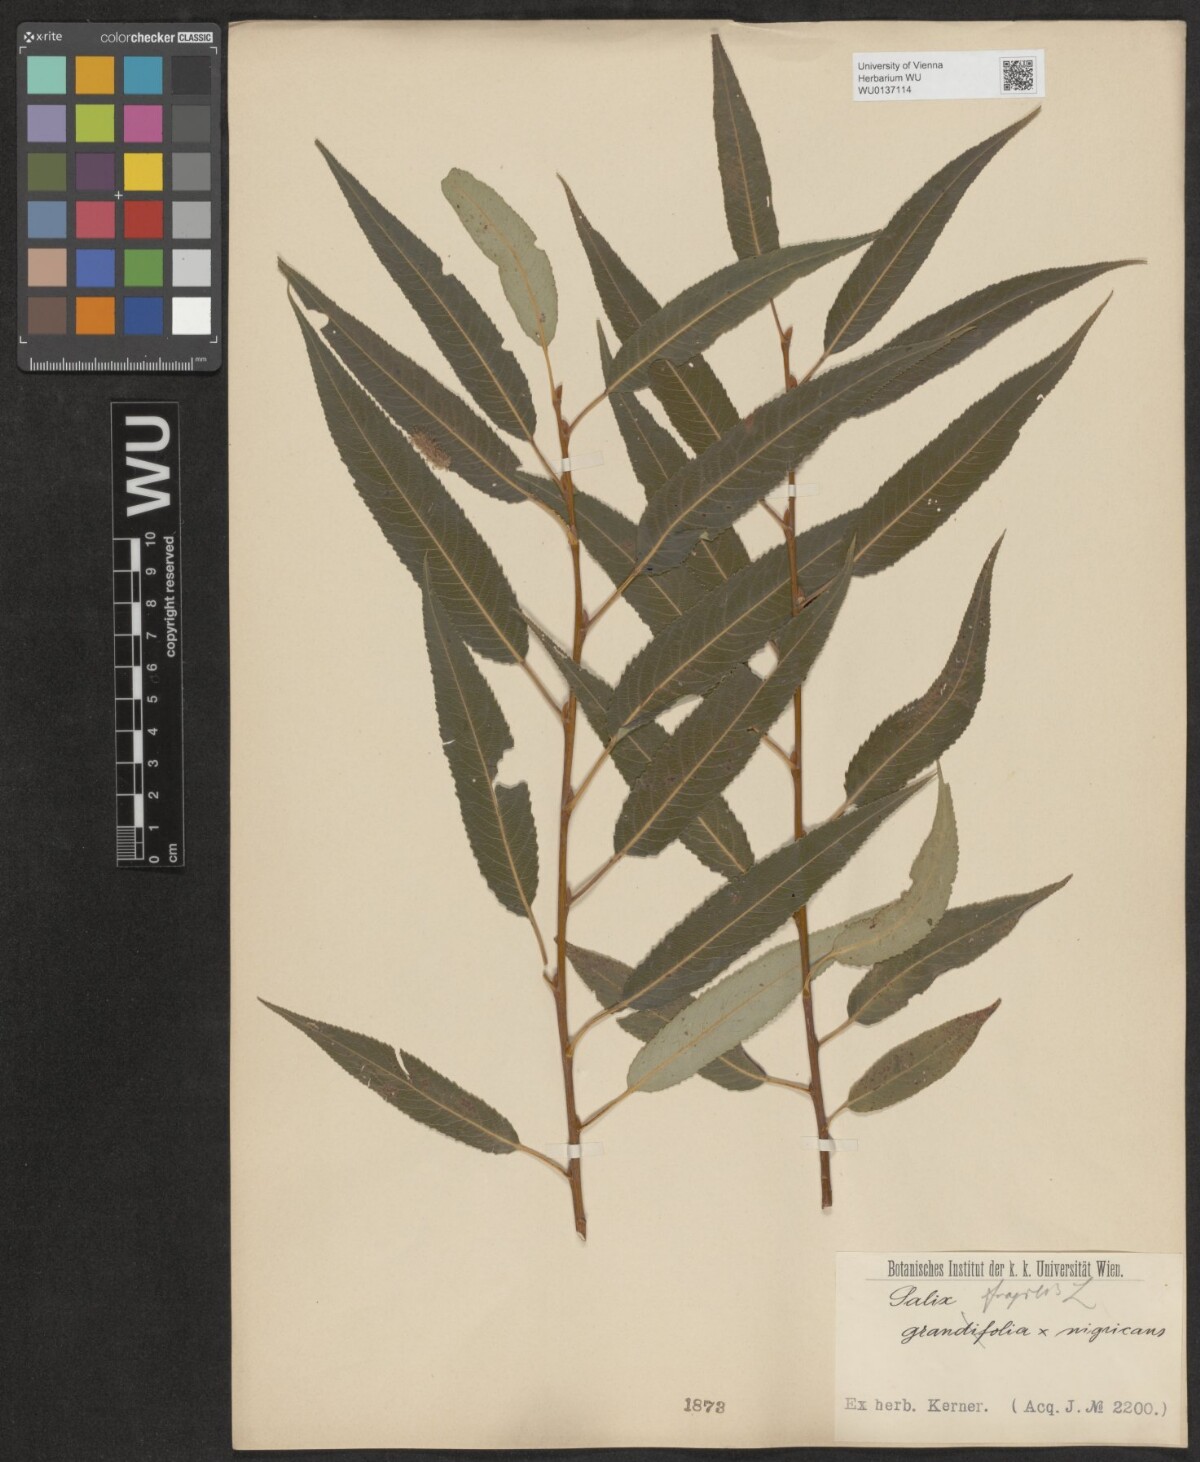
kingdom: Plantae
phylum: Tracheophyta
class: Magnoliopsida
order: Malpighiales
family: Salicaceae
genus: Salix
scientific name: Salix fragilis
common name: Crack willow
